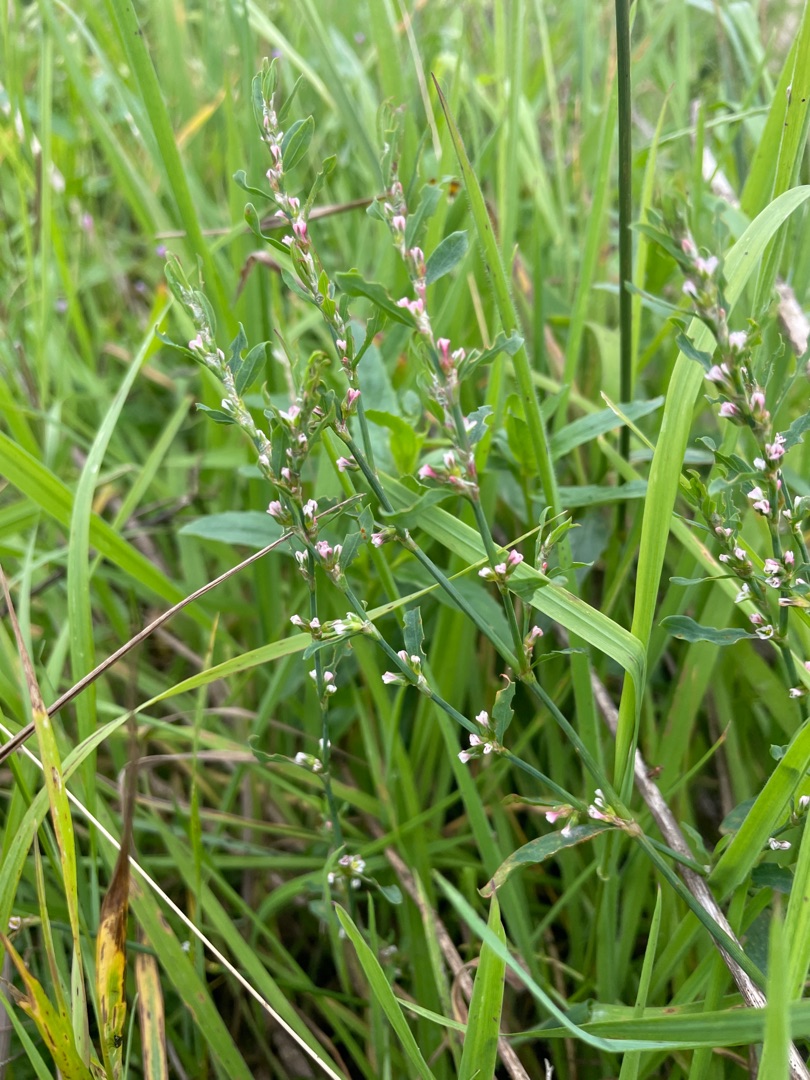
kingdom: Plantae
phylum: Tracheophyta
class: Magnoliopsida
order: Caryophyllales
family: Polygonaceae
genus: Polygonum
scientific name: Polygonum aviculare
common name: Vej-pileurt
